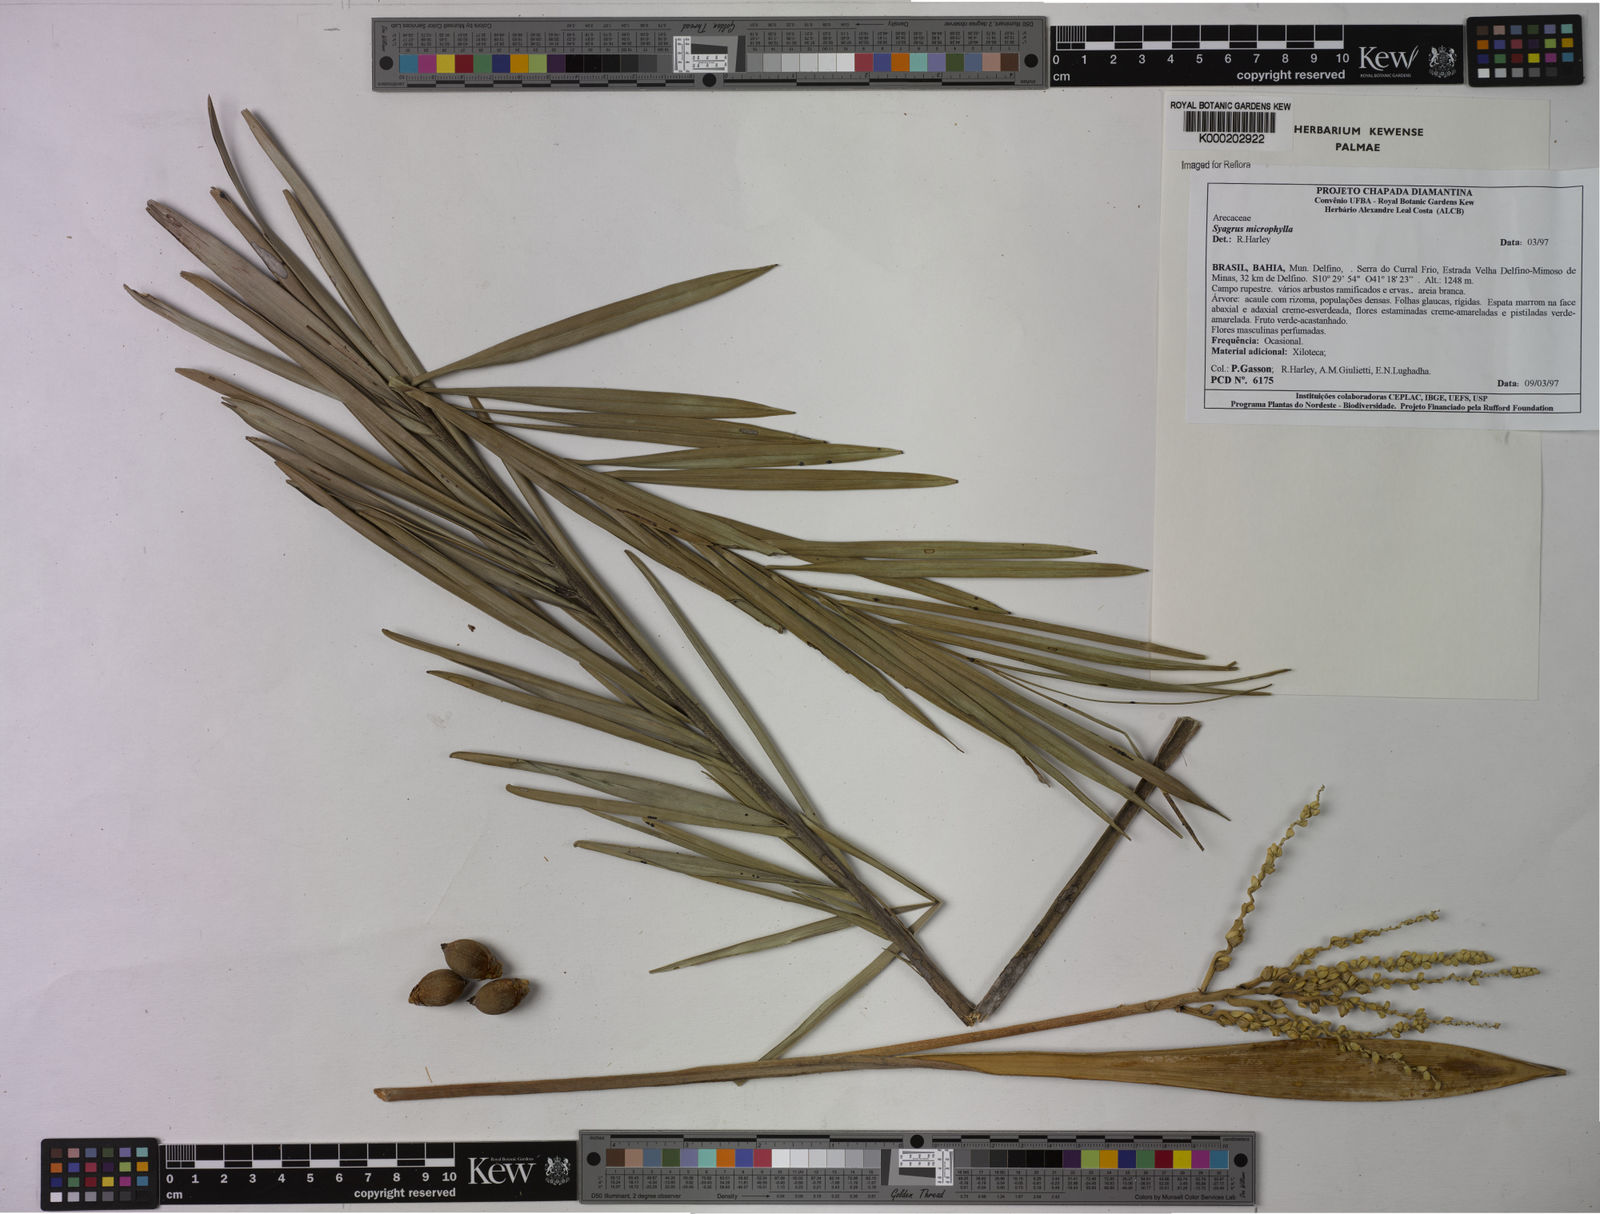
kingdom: Plantae
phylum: Tracheophyta
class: Liliopsida
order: Arecales
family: Arecaceae
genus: Syagrus
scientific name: Syagrus microphylla
